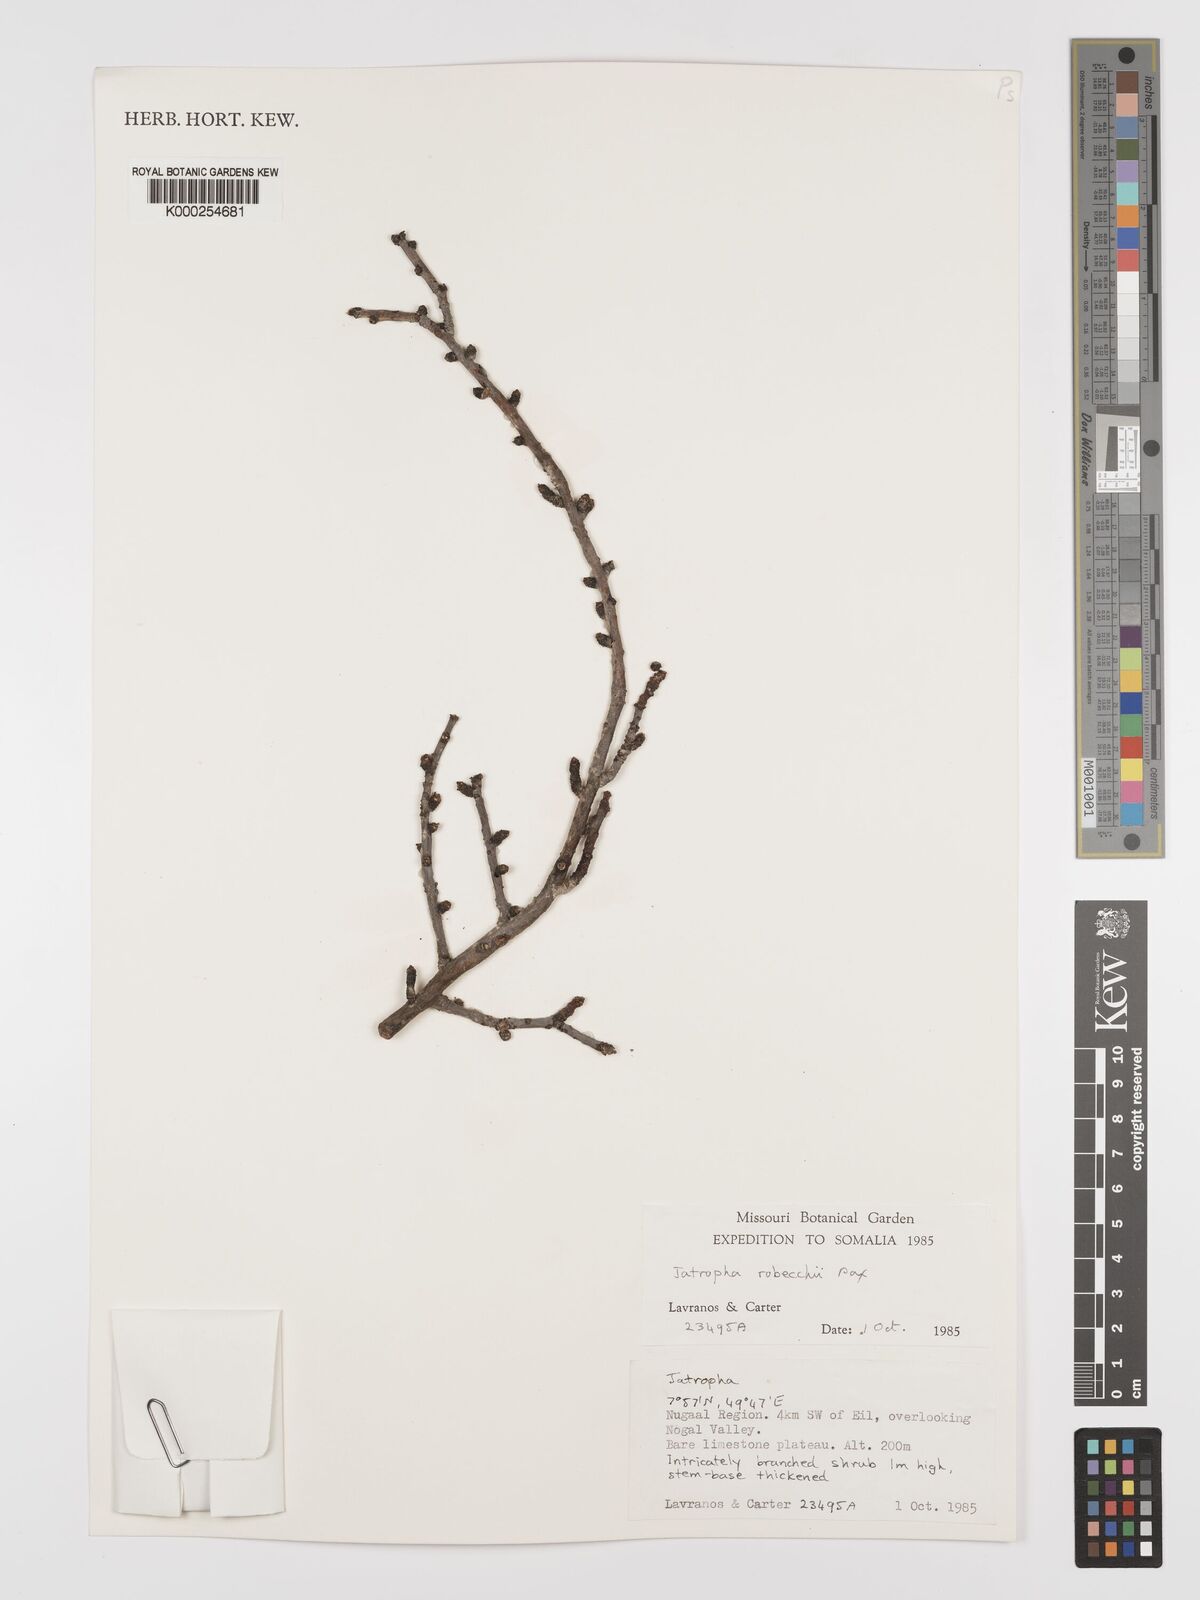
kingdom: Plantae
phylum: Tracheophyta
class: Magnoliopsida
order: Malpighiales
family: Euphorbiaceae
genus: Jatropha
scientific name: Jatropha robecchii
